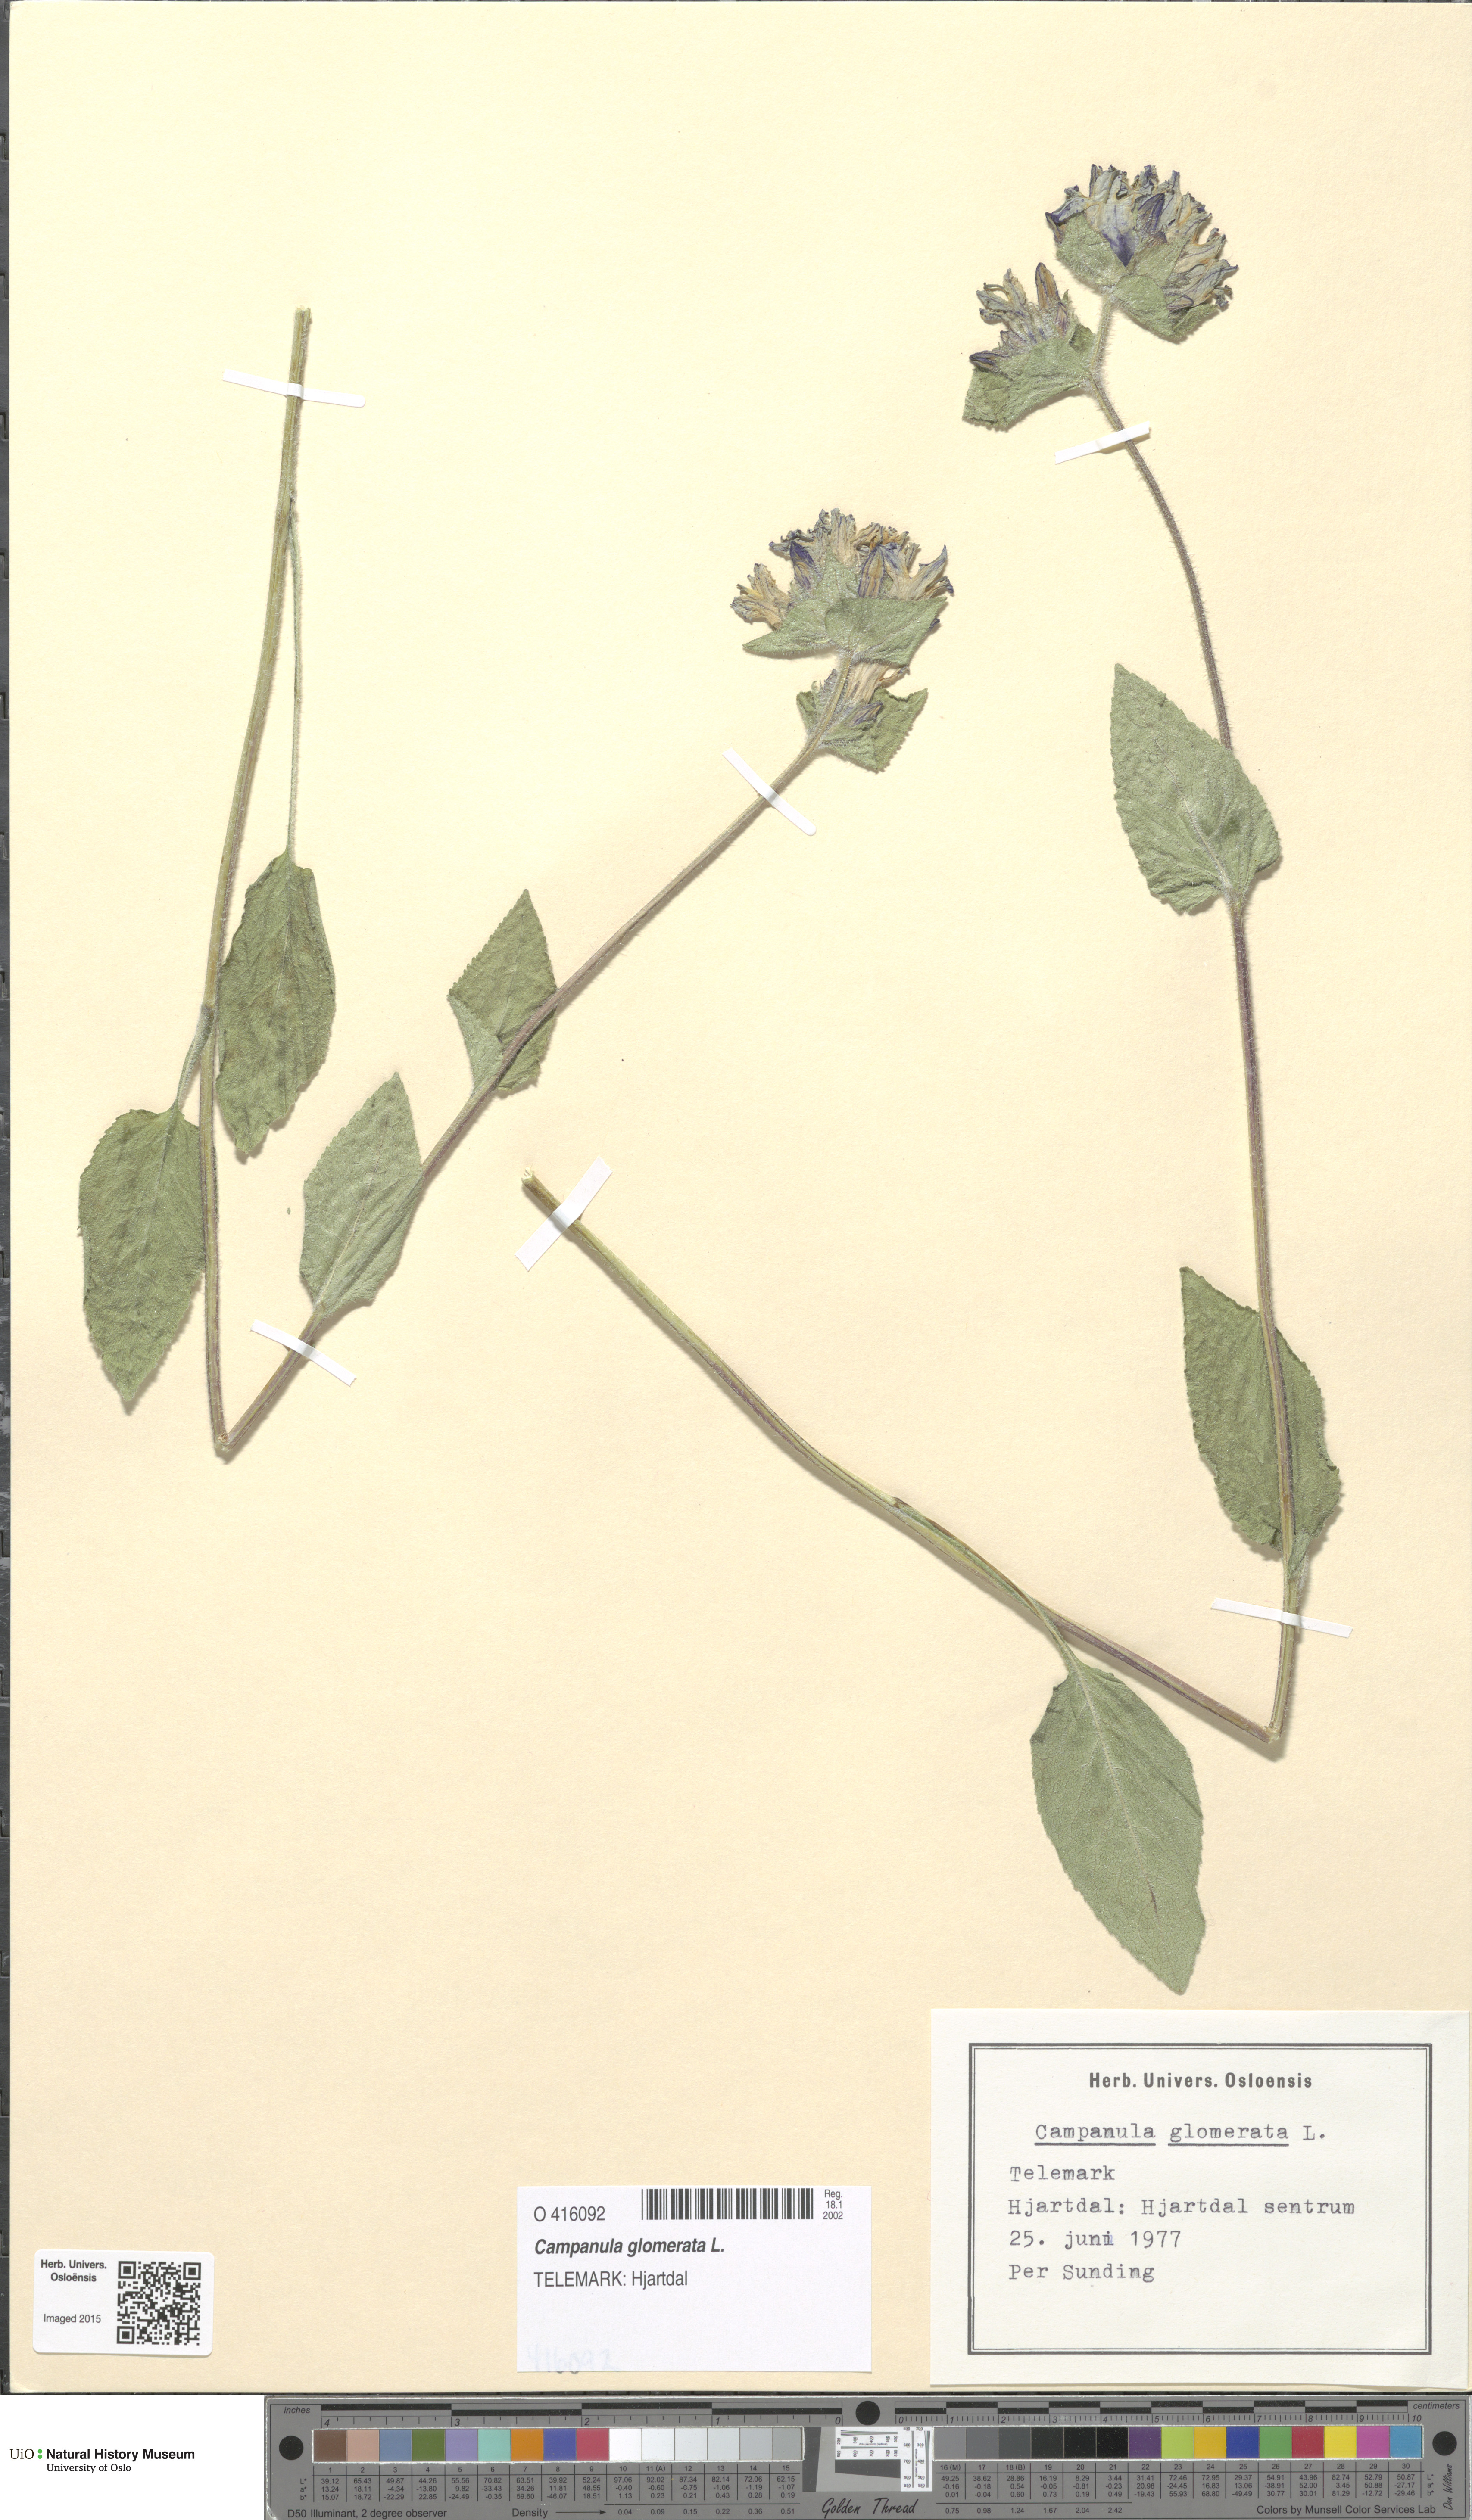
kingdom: Plantae
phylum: Tracheophyta
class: Magnoliopsida
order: Asterales
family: Campanulaceae
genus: Campanula
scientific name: Campanula glomerata
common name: Clustered bellflower
